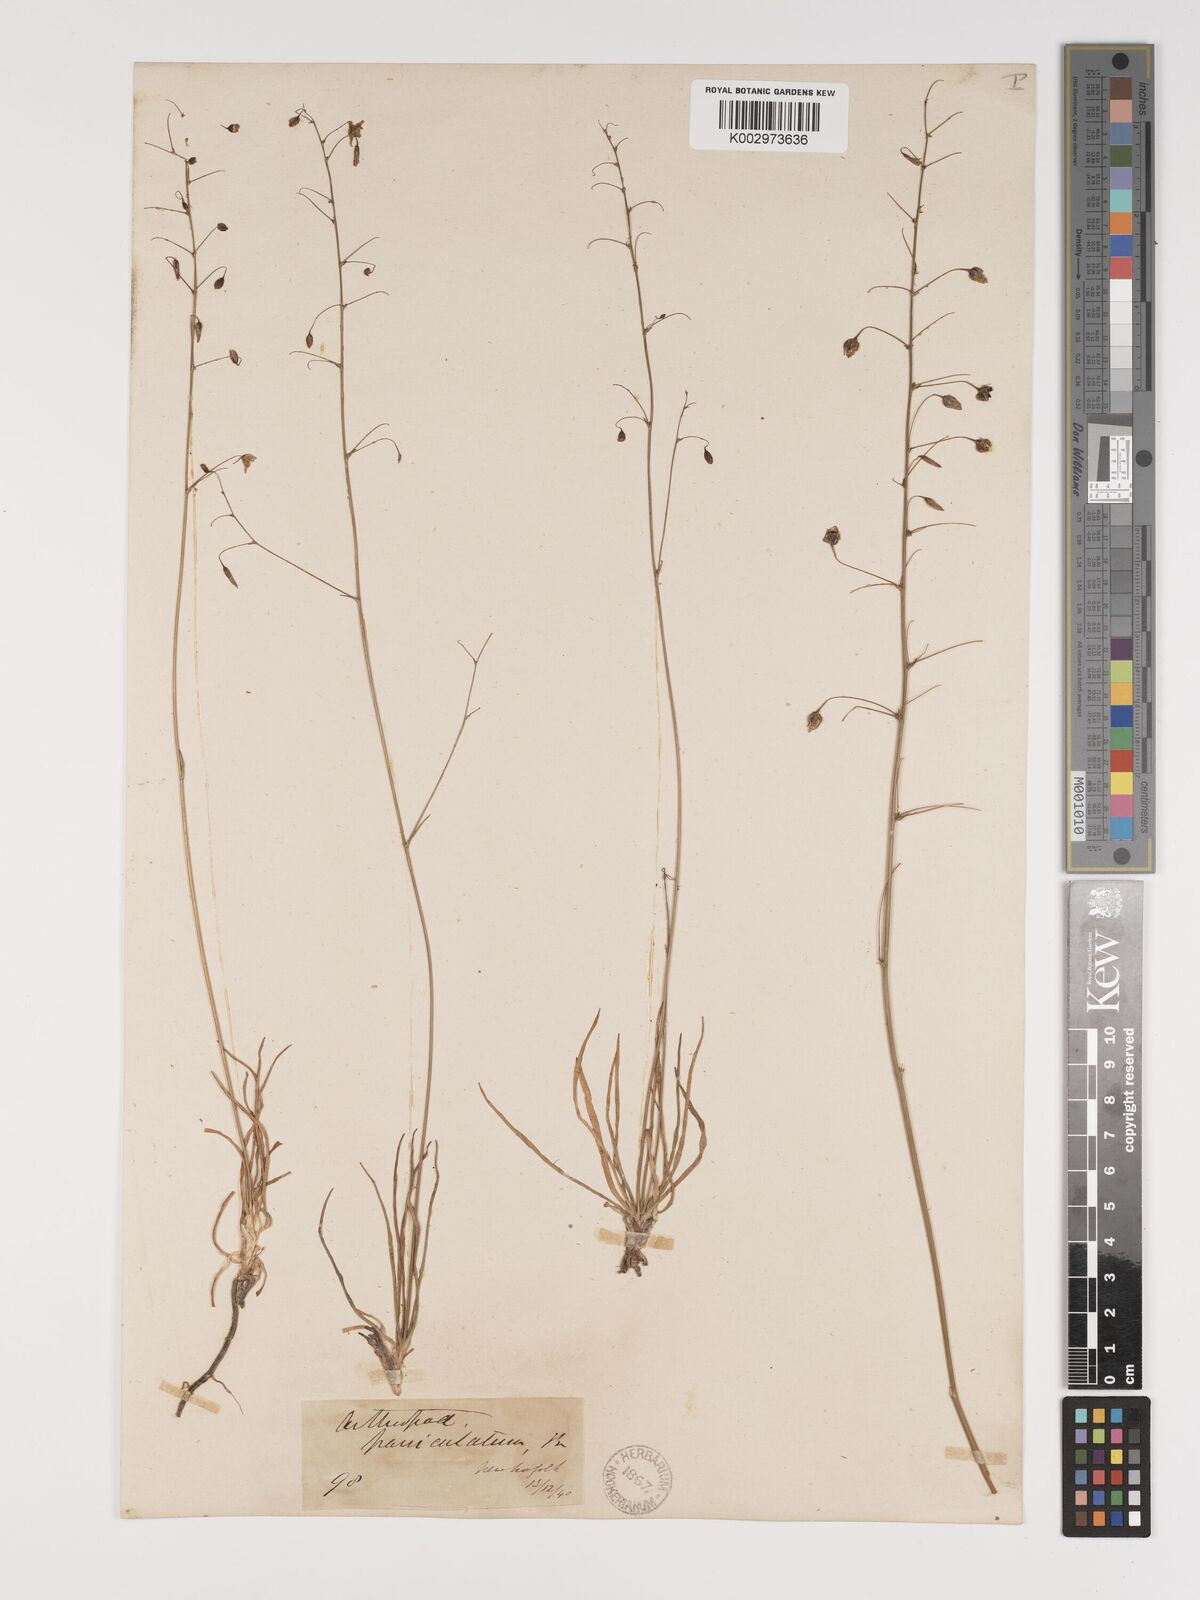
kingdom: Plantae
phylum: Tracheophyta
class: Liliopsida
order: Asparagales
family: Asparagaceae
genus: Arthropodium
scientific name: Arthropodium milleflorum
